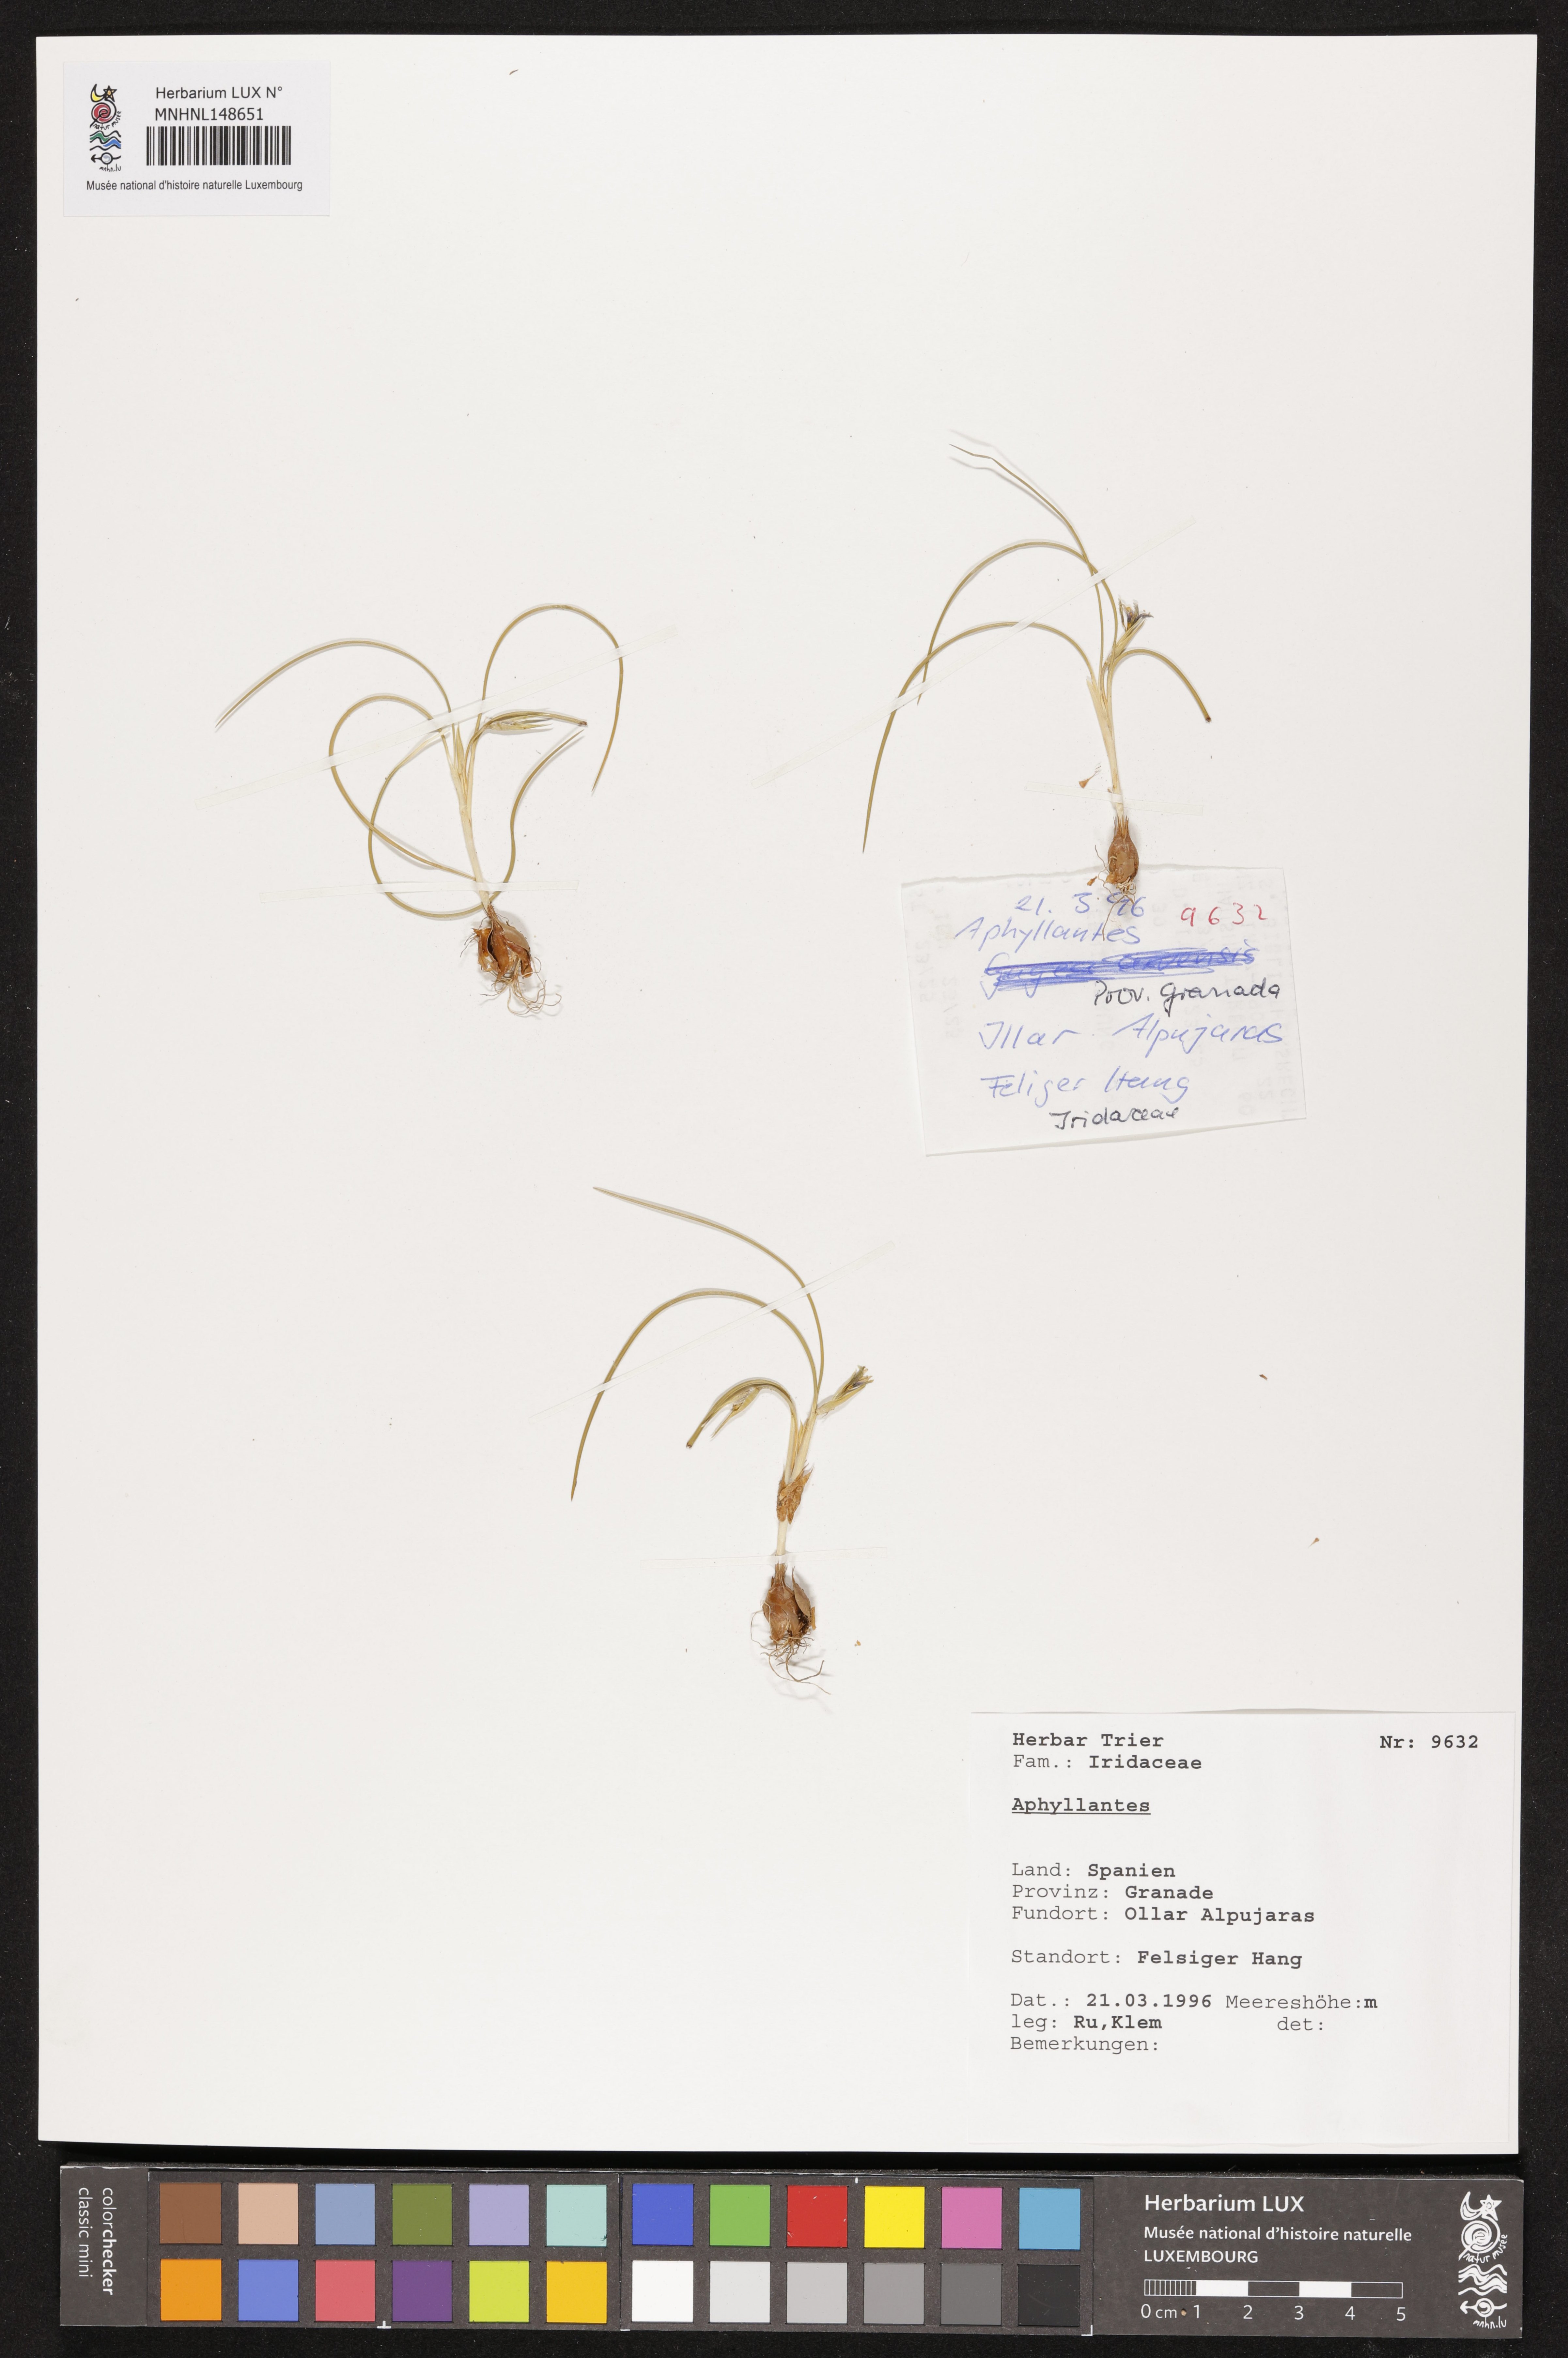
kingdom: Plantae
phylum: Tracheophyta
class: Liliopsida
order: Asparagales
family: Asparagaceae
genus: Aphyllanthes
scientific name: Aphyllanthes
